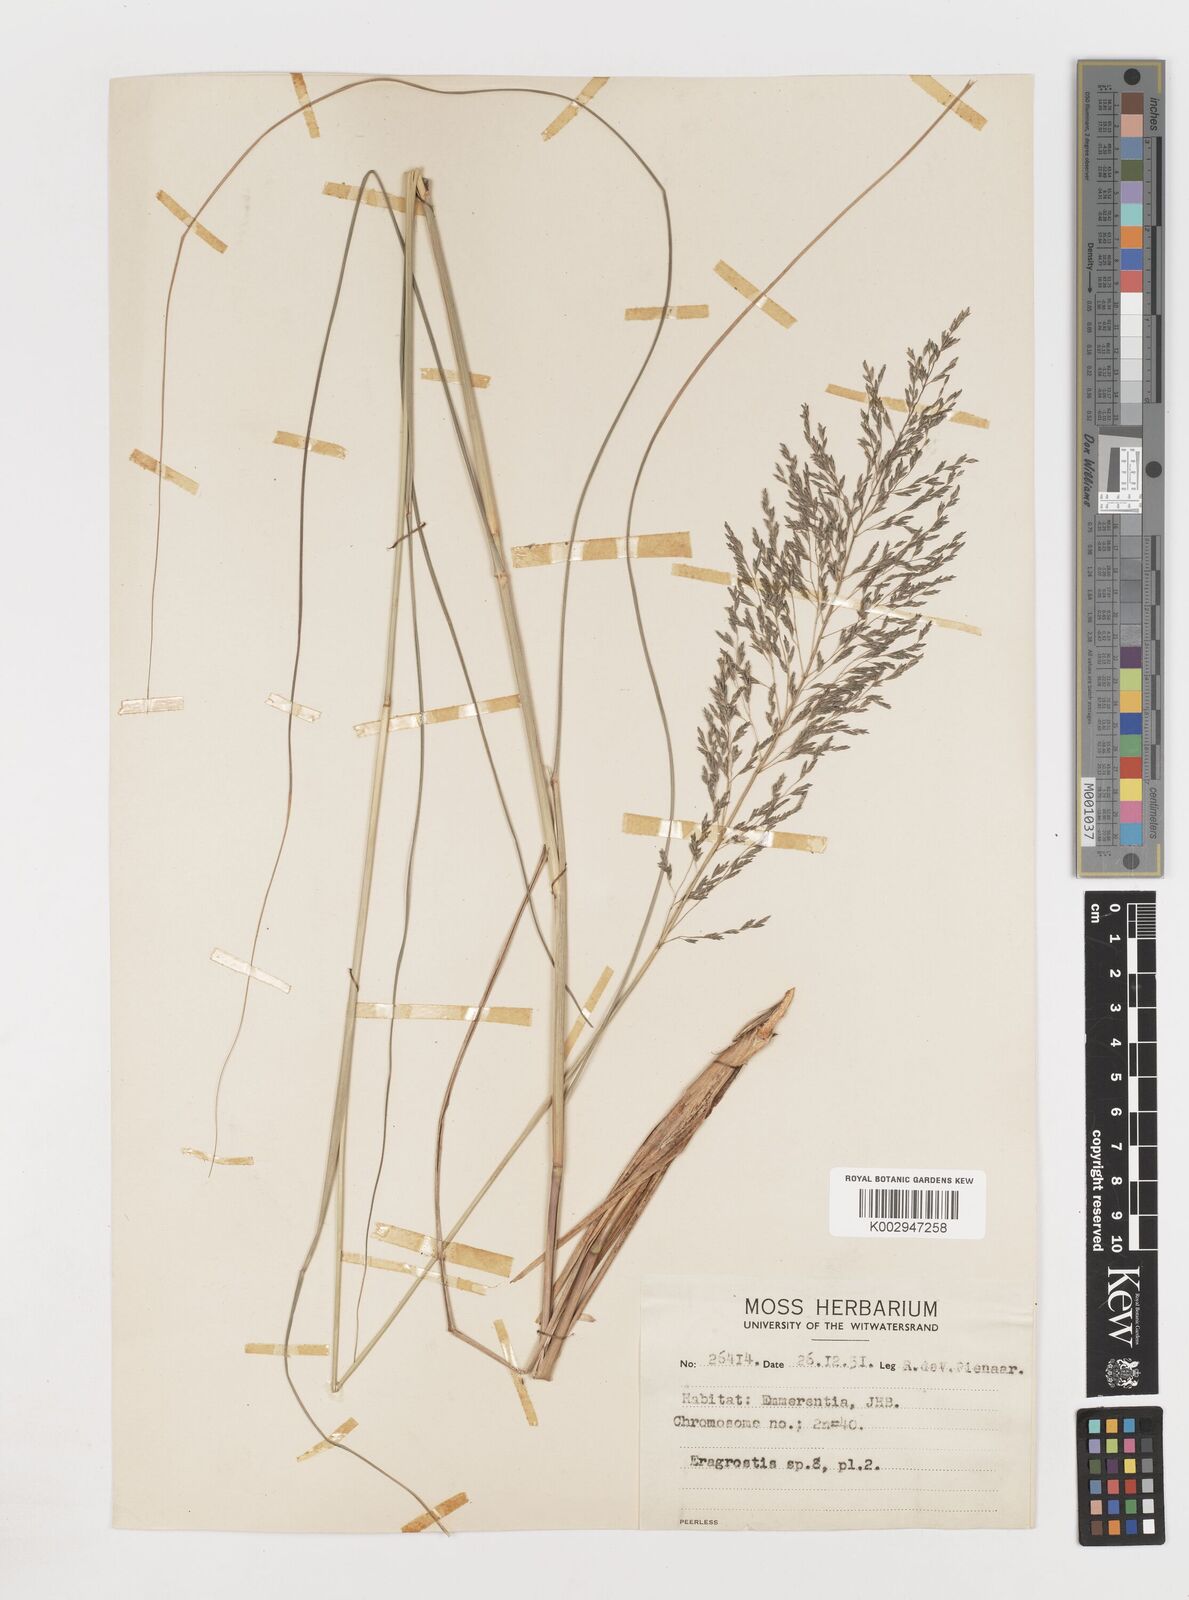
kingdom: Plantae
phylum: Tracheophyta
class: Liliopsida
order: Poales
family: Poaceae
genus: Eragrostis
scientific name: Eragrostis
